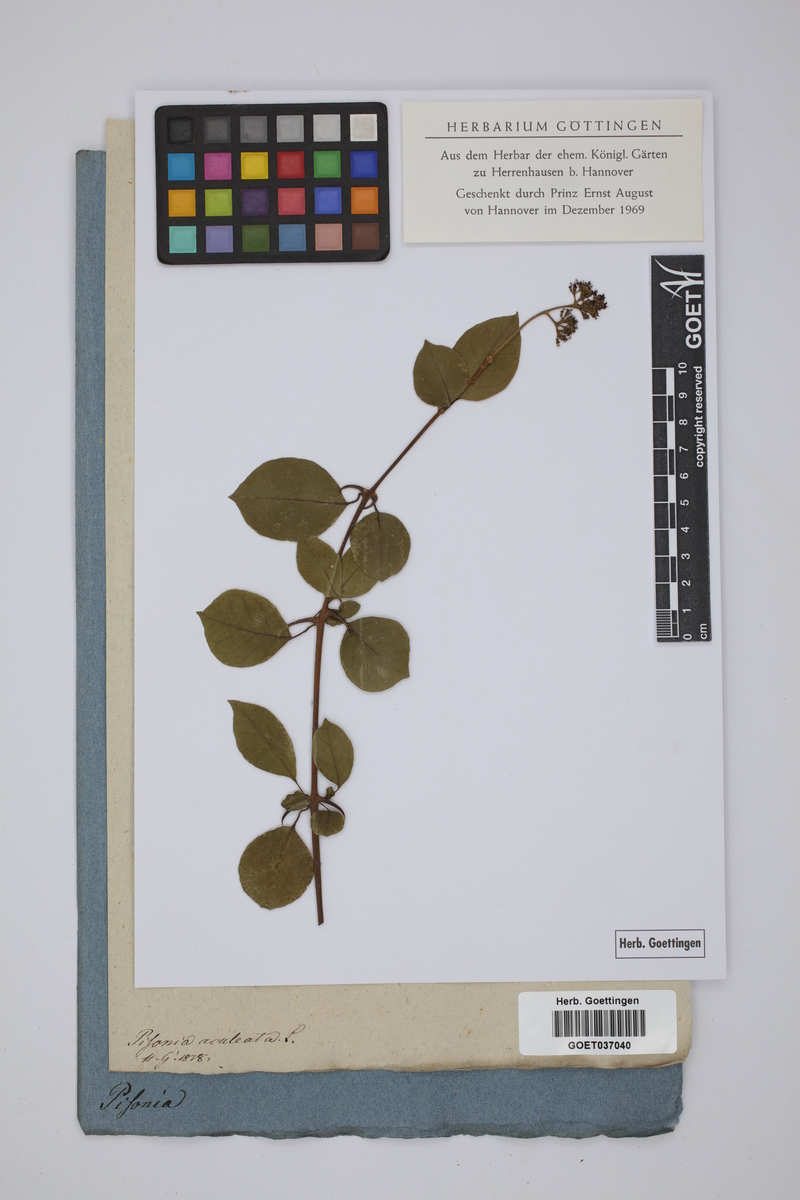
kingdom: Plantae
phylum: Tracheophyta
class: Magnoliopsida
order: Caryophyllales
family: Nyctaginaceae
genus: Pisonia
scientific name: Pisonia aculeata
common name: Cockspur vine
